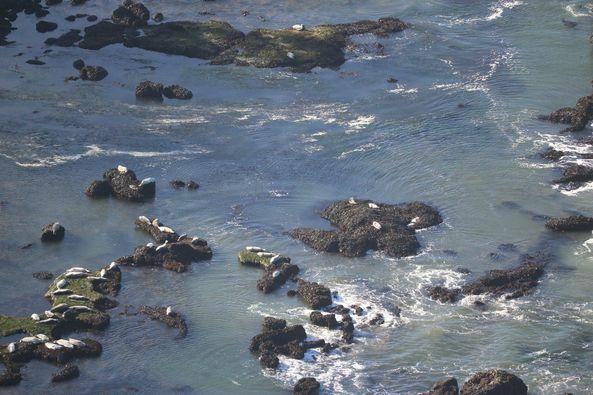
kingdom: Animalia
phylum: Chordata
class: Mammalia
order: Carnivora
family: Phocidae
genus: Phoca
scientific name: Phoca vitulina
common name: Harbor seal
